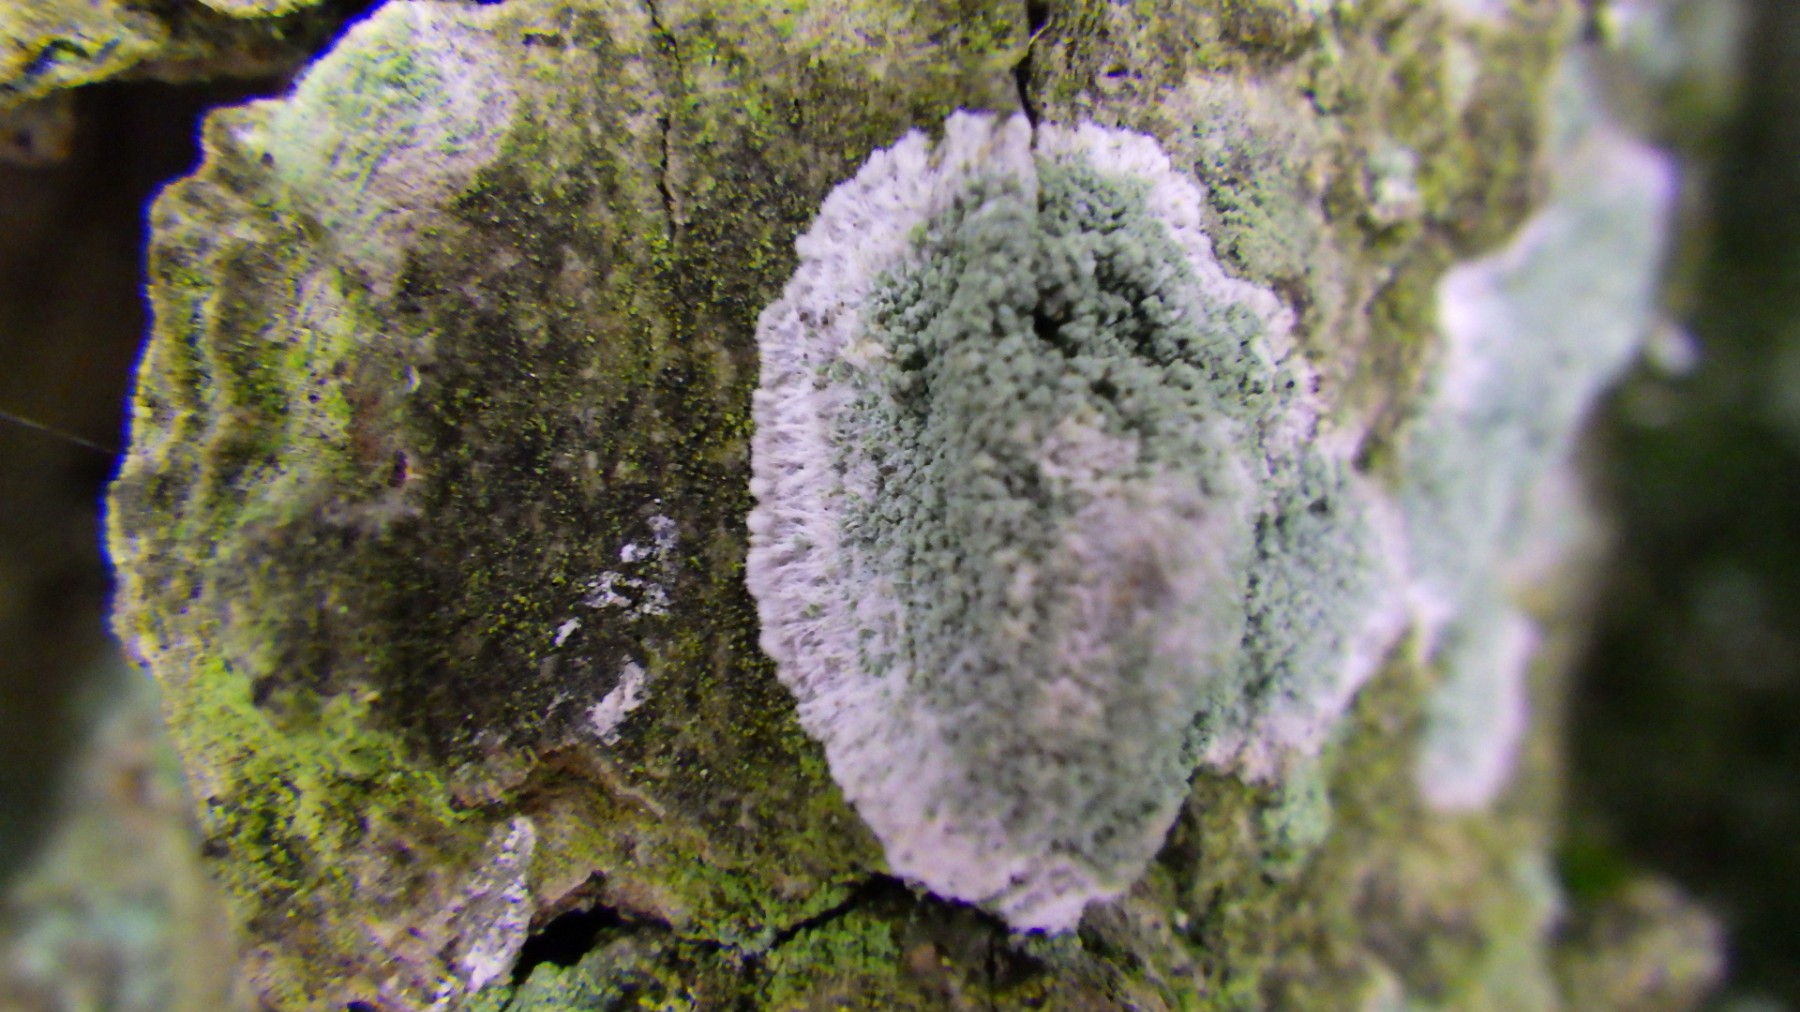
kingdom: Fungi
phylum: Ascomycota
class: Lecanoromycetes
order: Lecanorales
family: Haematommataceae
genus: Haematomma
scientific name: Haematomma ochroleucum
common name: gul trådkantlav
